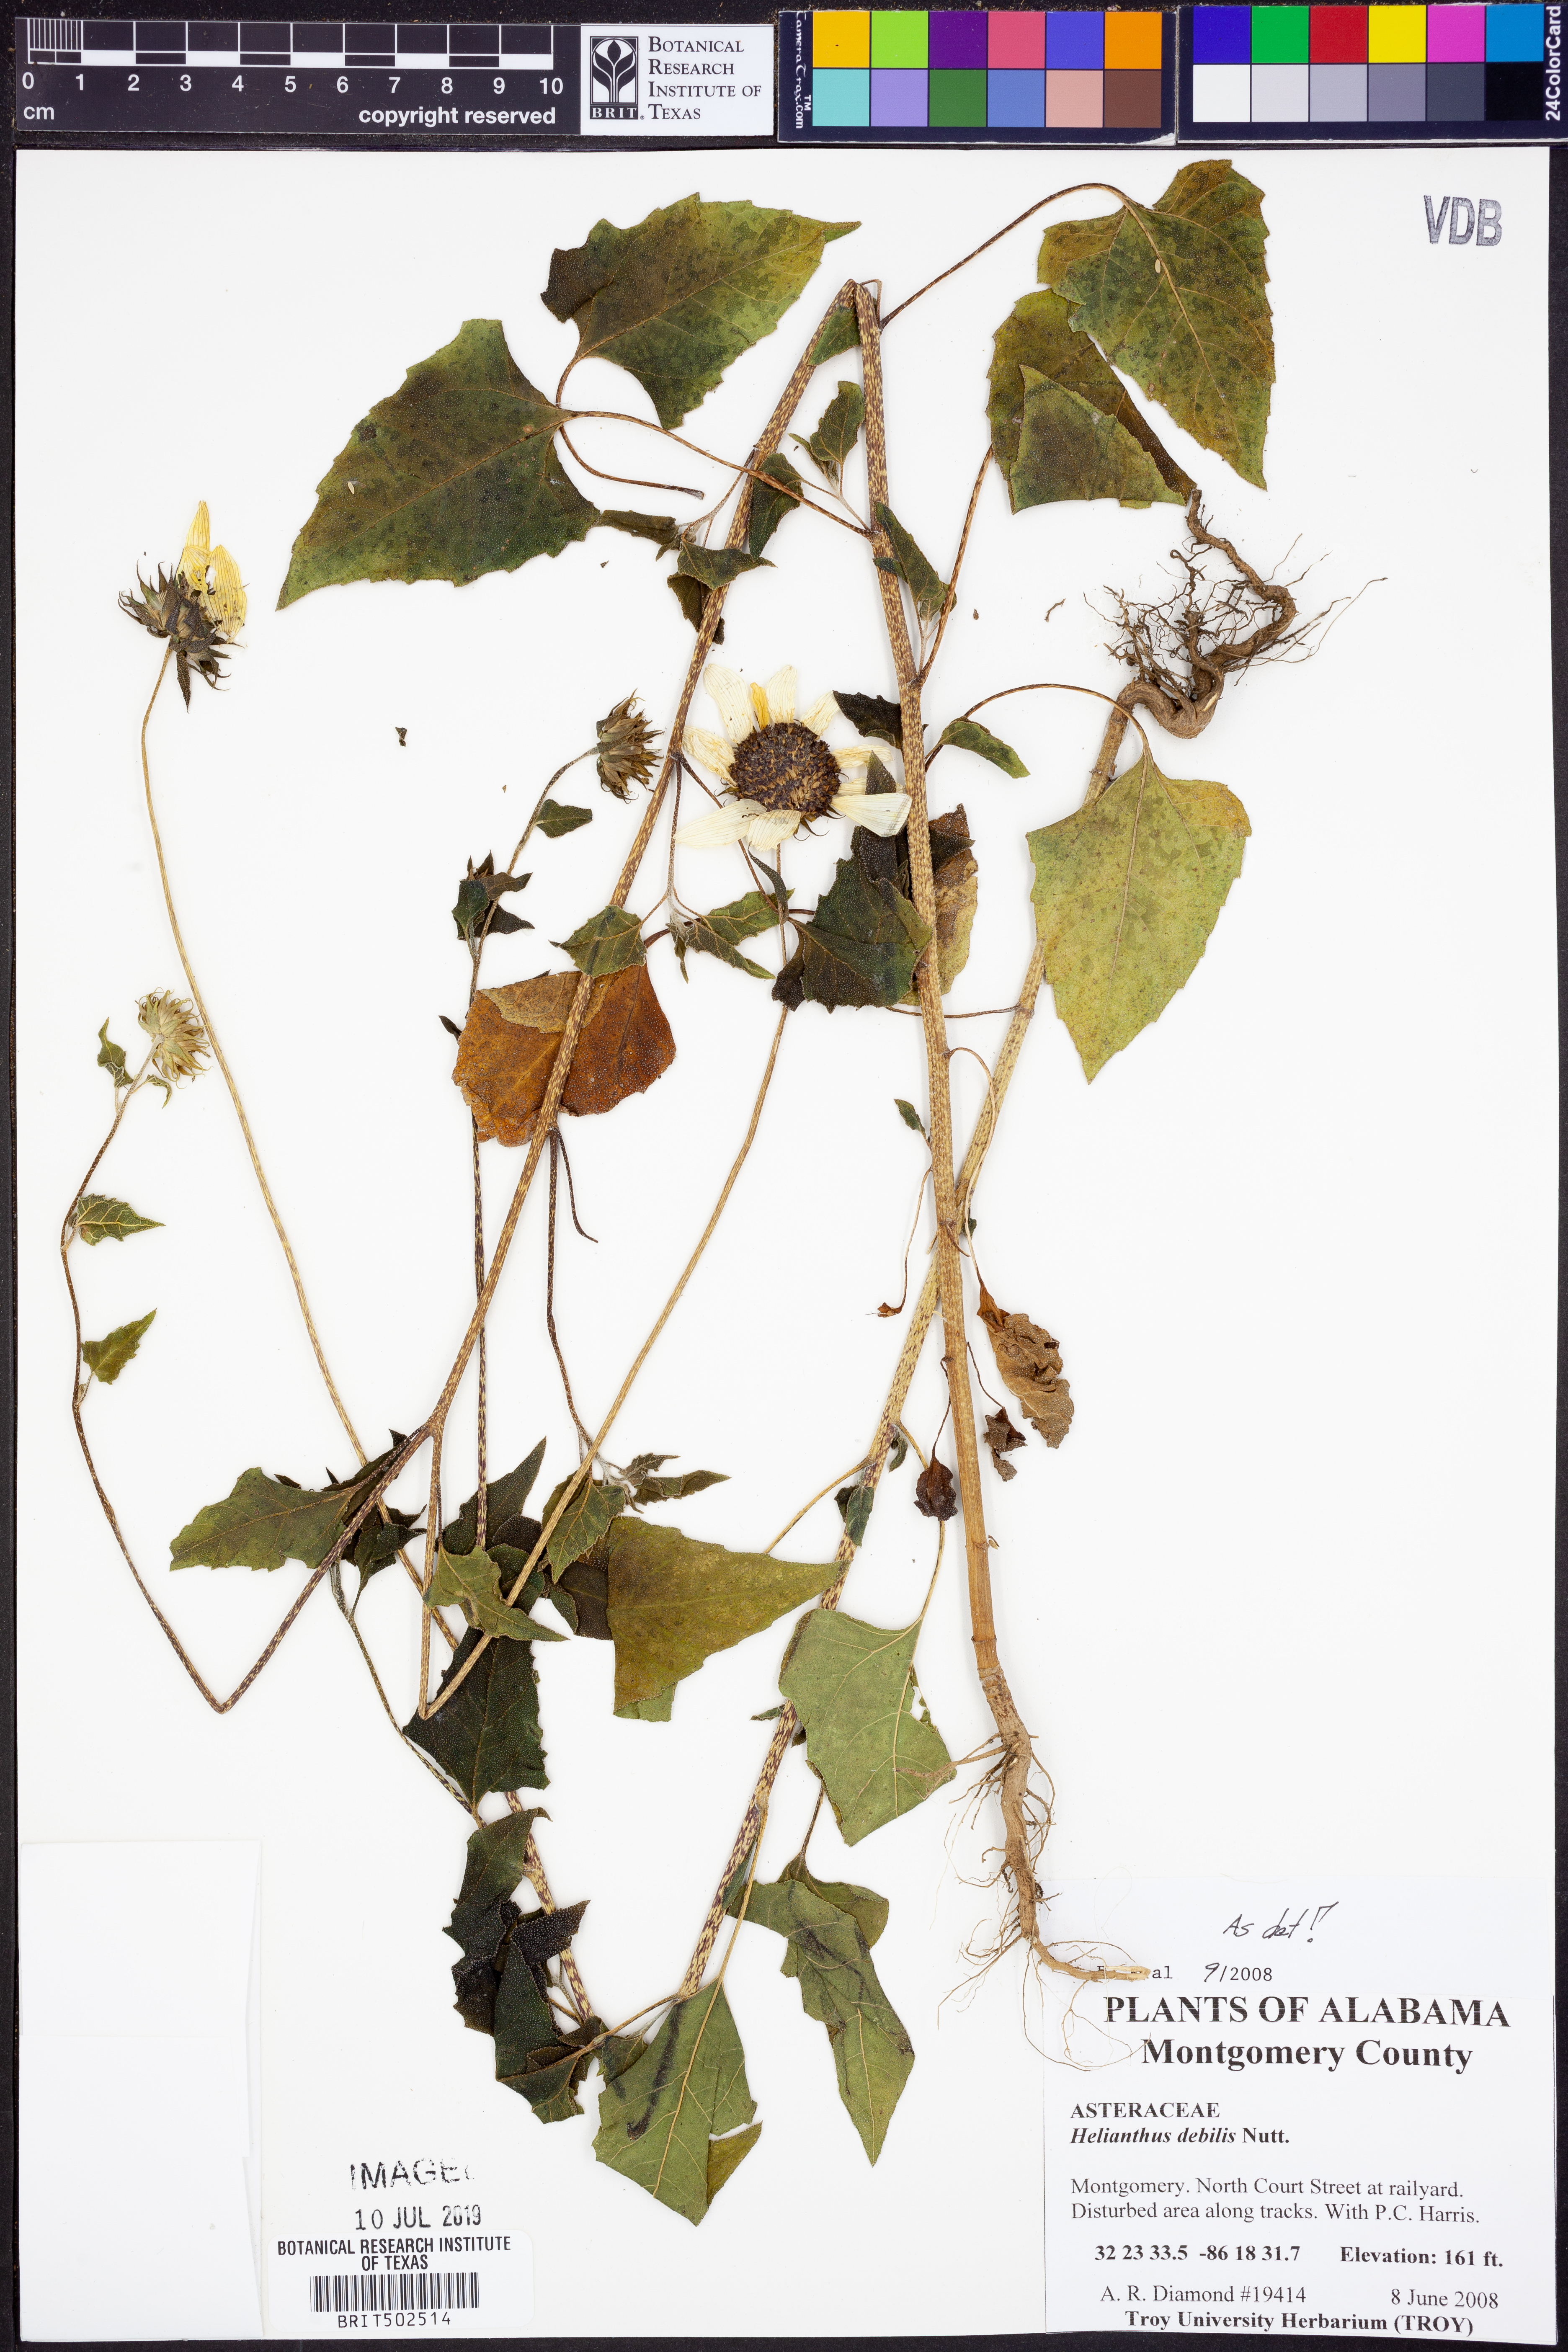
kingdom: Plantae
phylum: Tracheophyta
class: Magnoliopsida
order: Asterales
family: Asteraceae
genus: Helianthus
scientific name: Helianthus debilis
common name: Weak sunflower
